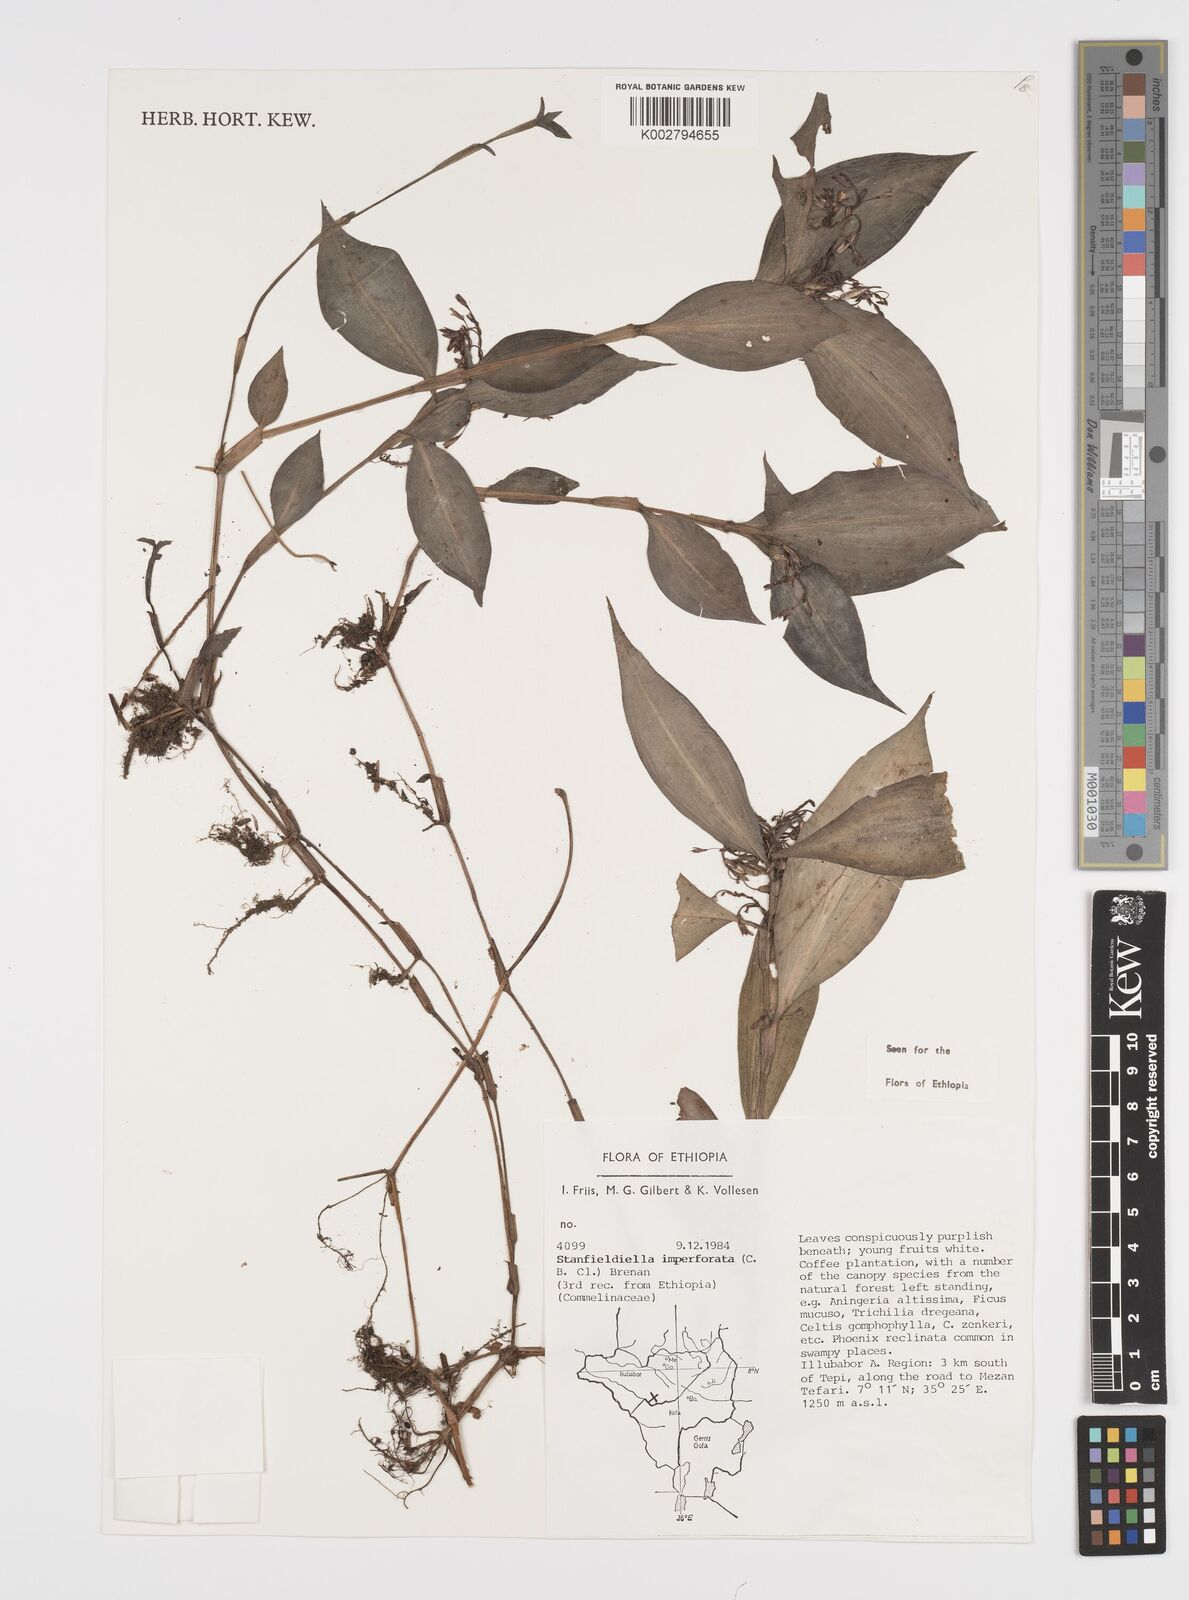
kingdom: Plantae
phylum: Tracheophyta
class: Liliopsida
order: Commelinales
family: Commelinaceae
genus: Stanfieldiella
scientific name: Stanfieldiella imperforata
